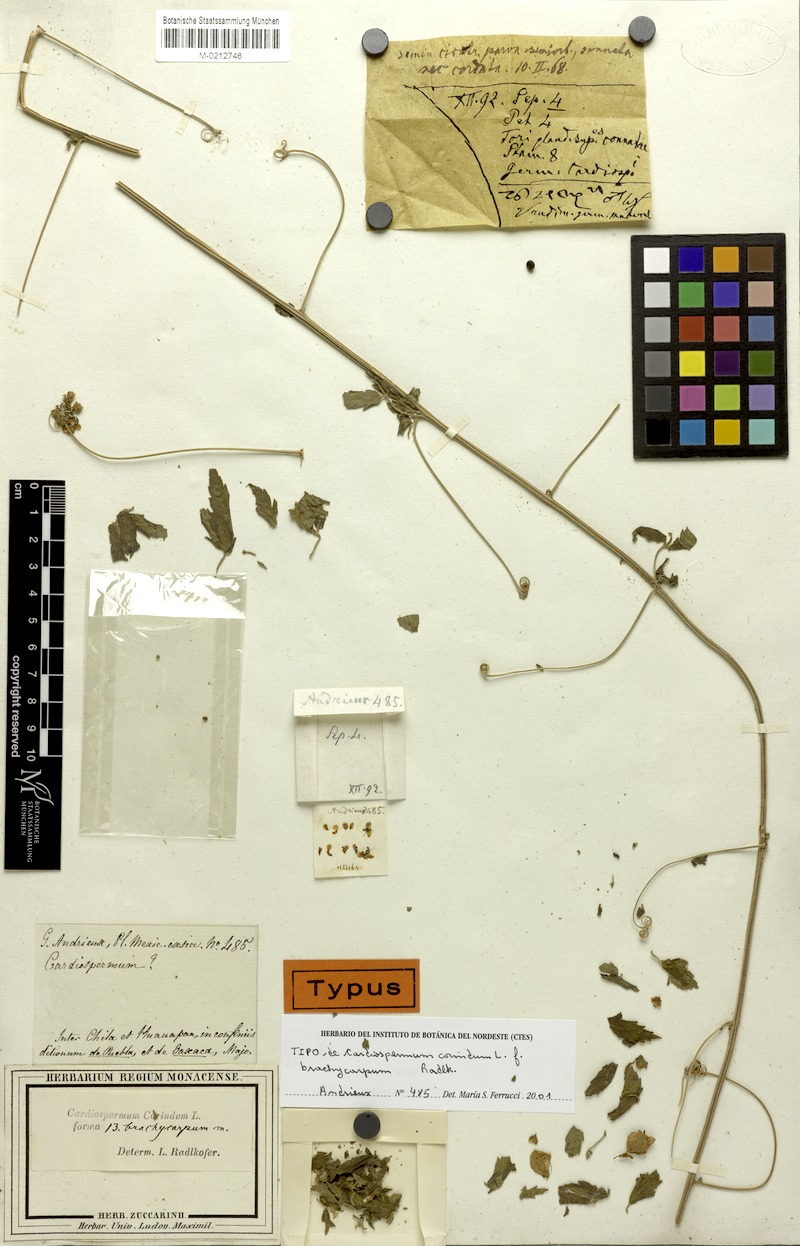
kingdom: Plantae
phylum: Tracheophyta
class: Magnoliopsida
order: Sapindales
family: Sapindaceae
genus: Cardiospermum
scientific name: Cardiospermum corindum
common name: Faux persil
